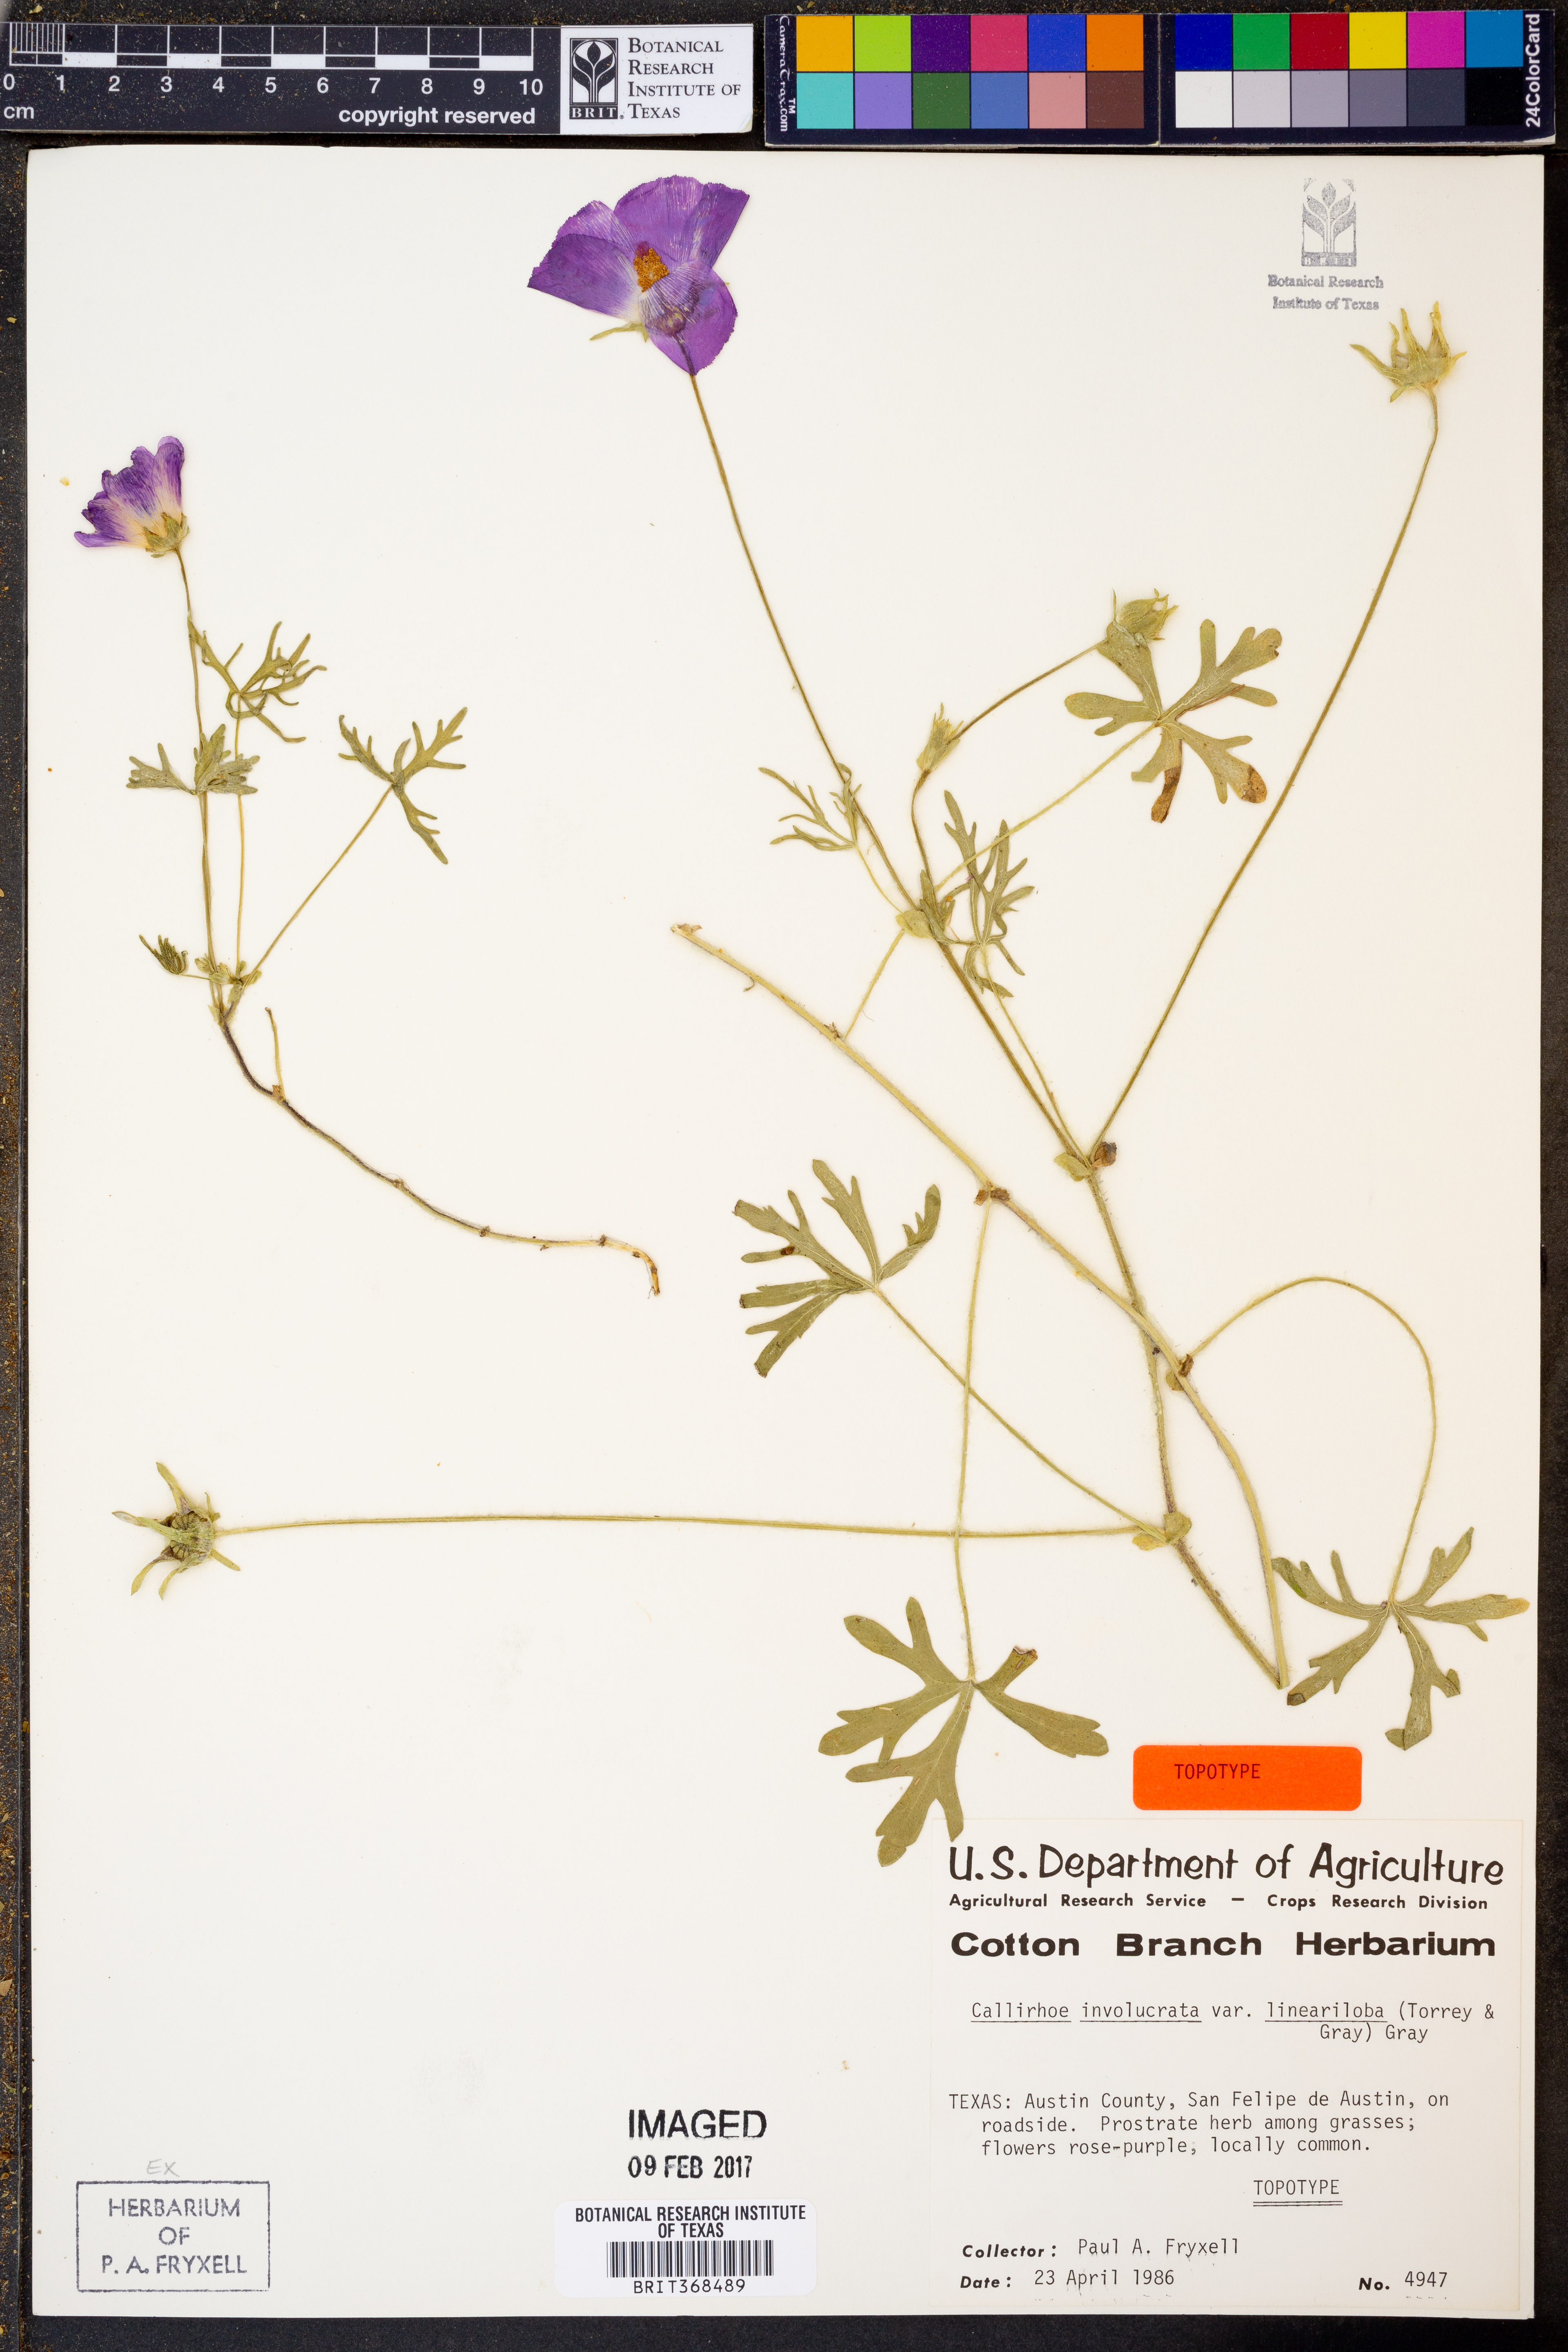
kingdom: Plantae
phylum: Tracheophyta
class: Magnoliopsida
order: Malvales
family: Malvaceae
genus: Callirhoe
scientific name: Callirhoe involucrata
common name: Purple poppy-mallow
